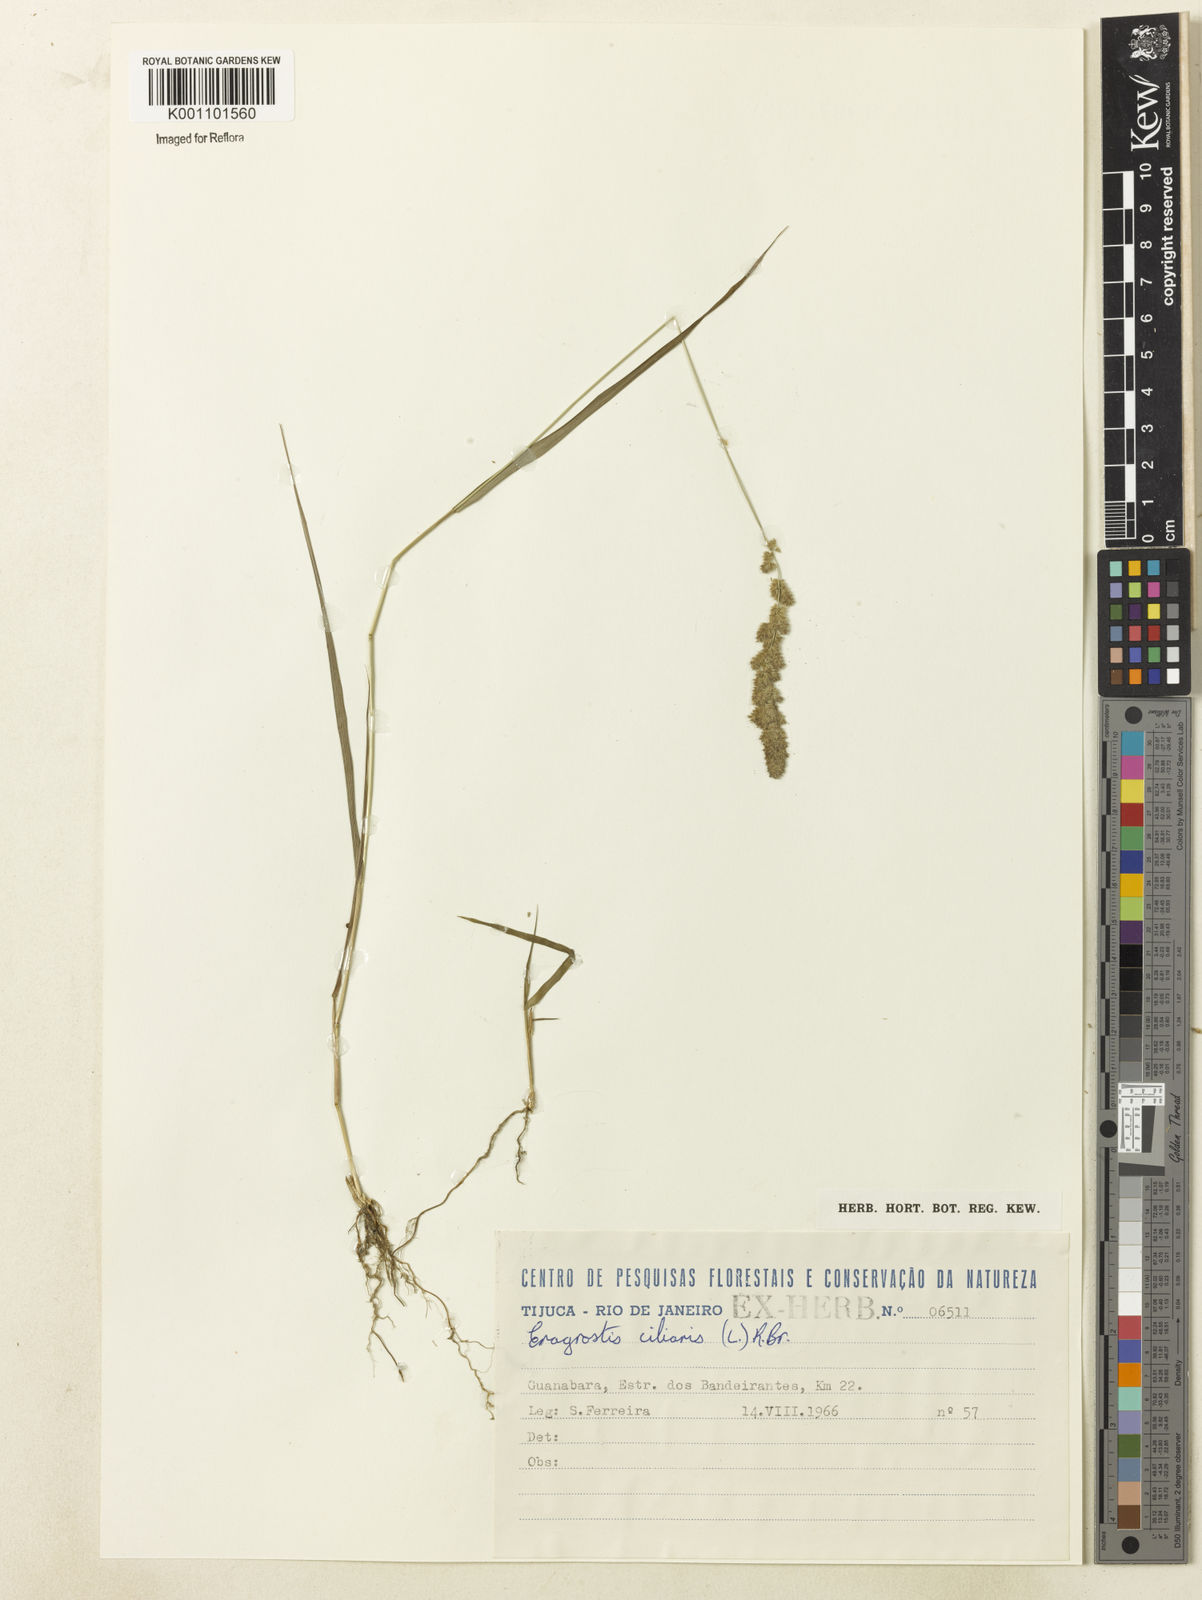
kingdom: Plantae
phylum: Tracheophyta
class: Liliopsida
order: Poales
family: Poaceae
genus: Eragrostis
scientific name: Eragrostis ciliaris
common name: Gophertail lovegrass
